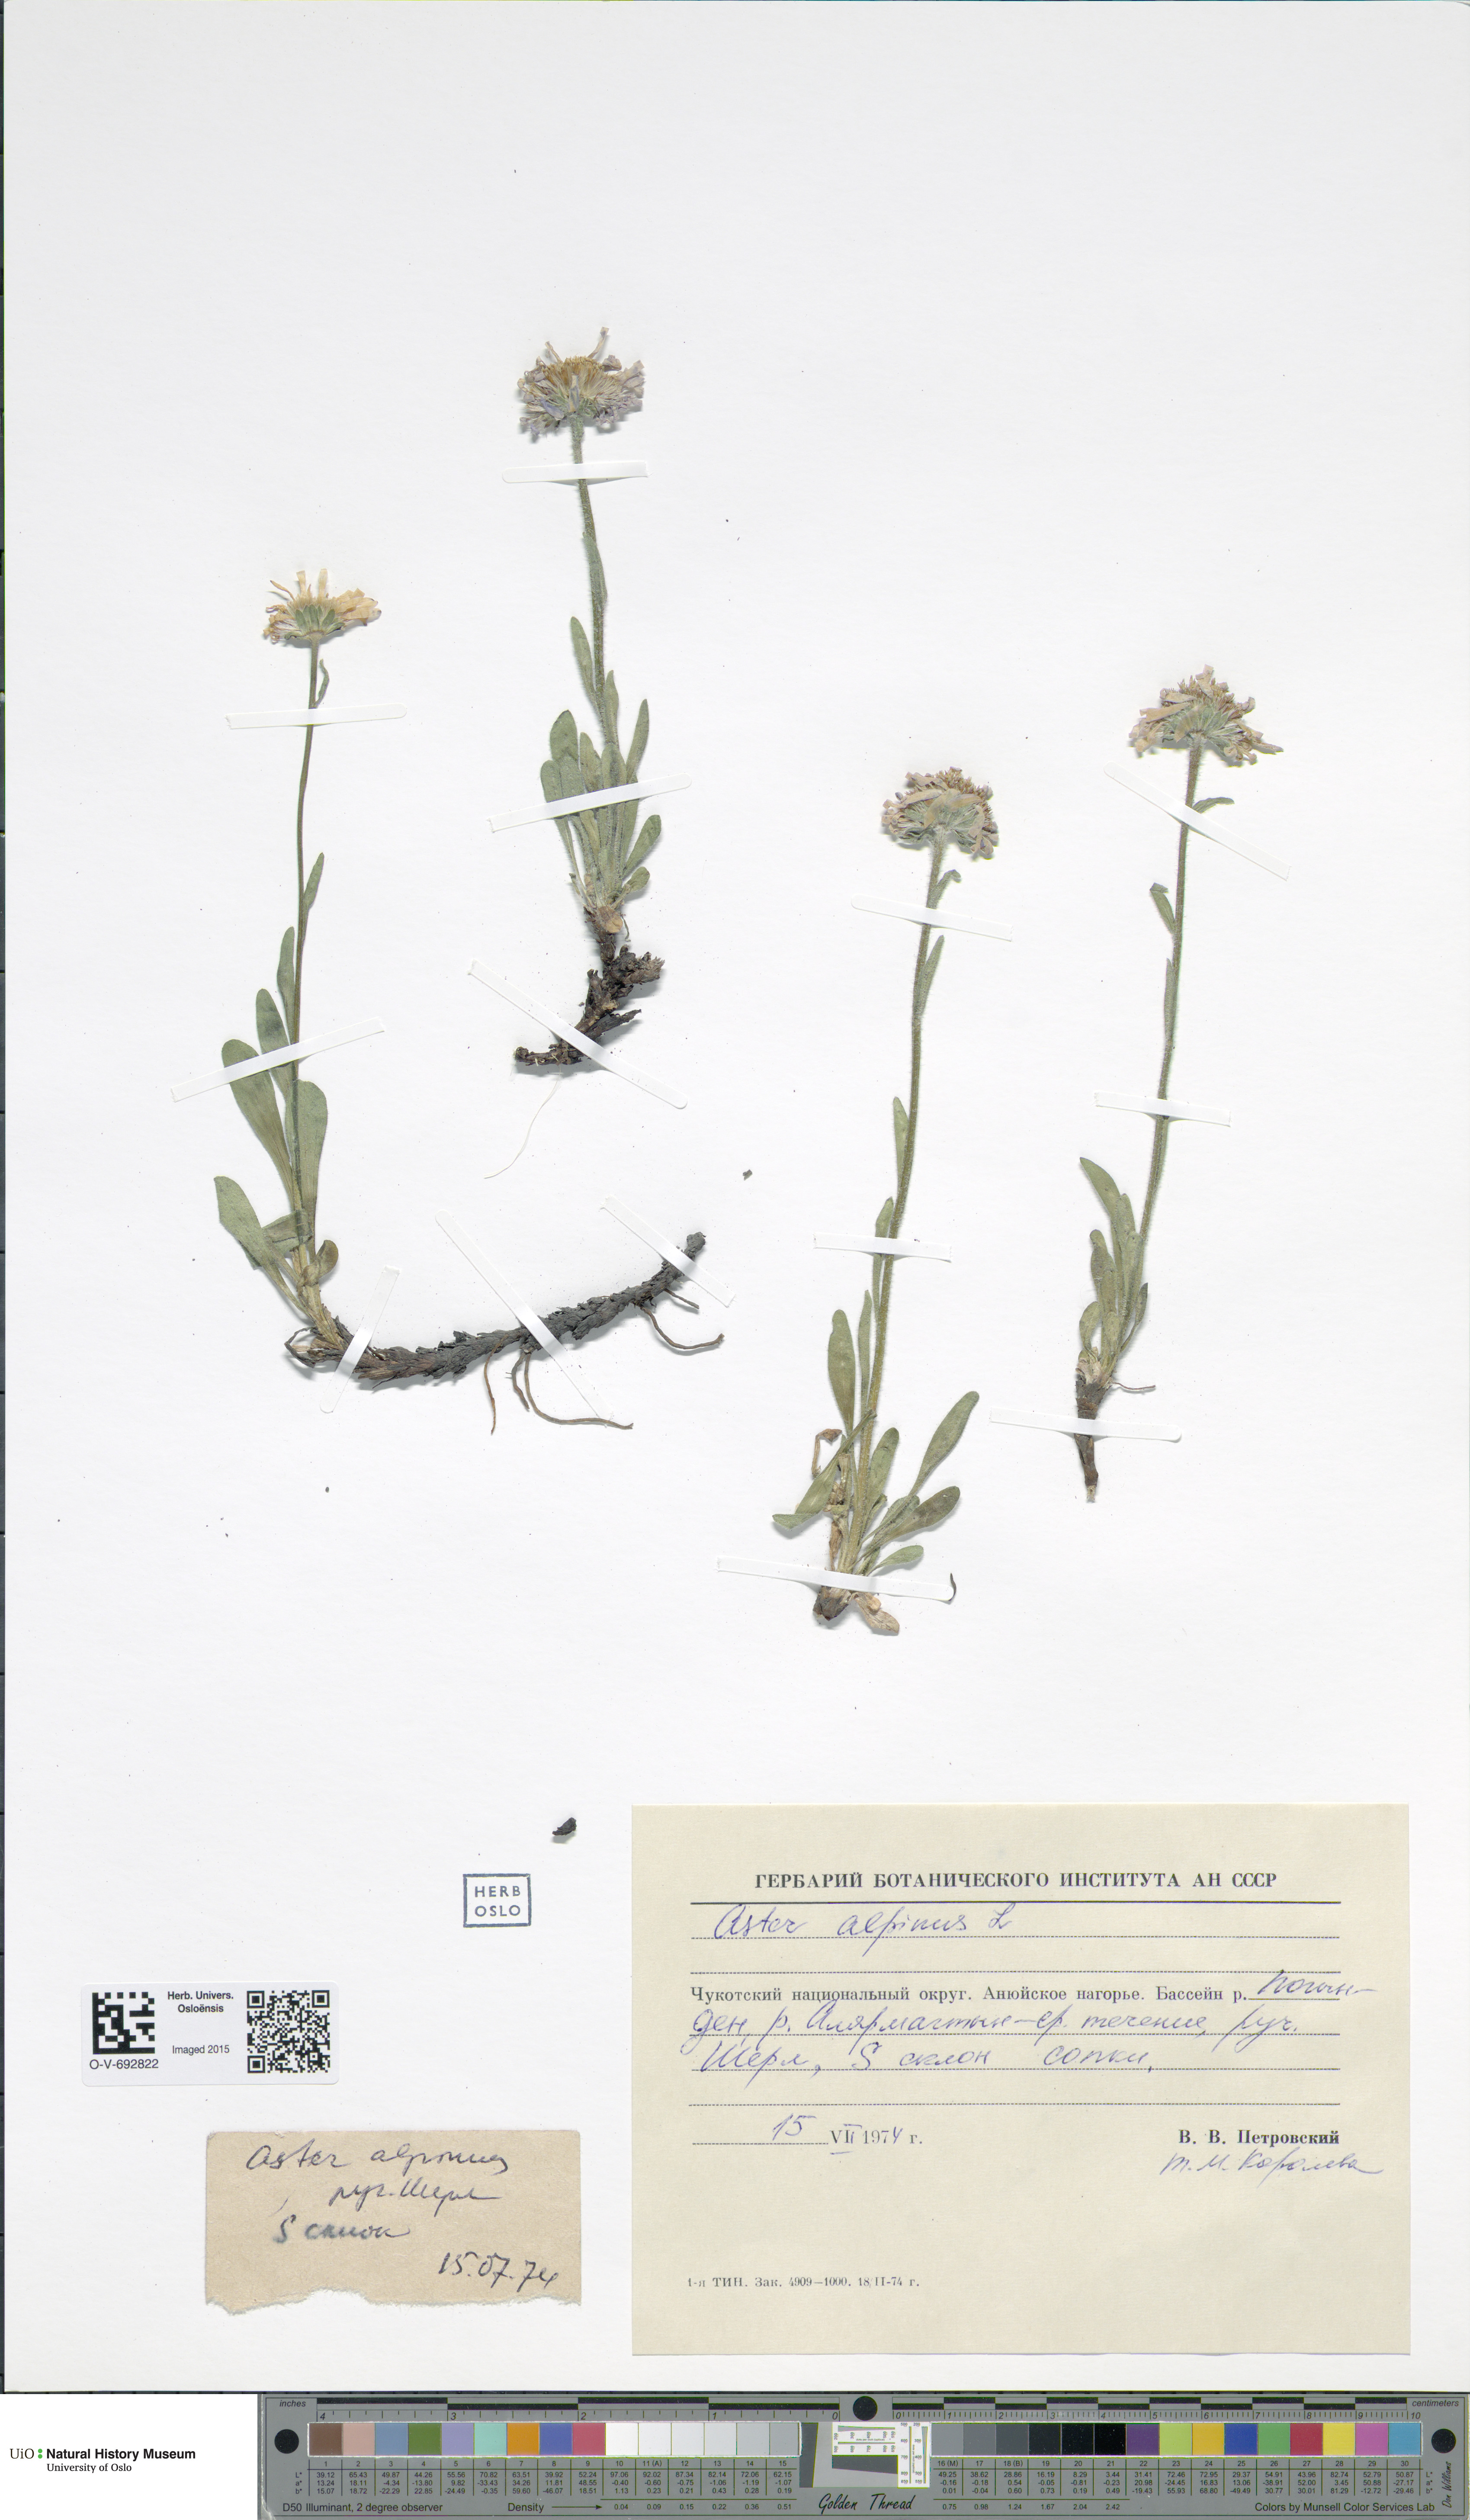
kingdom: Plantae
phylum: Tracheophyta
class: Magnoliopsida
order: Asterales
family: Asteraceae
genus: Aster
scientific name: Aster alpinus
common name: Alpine aster
